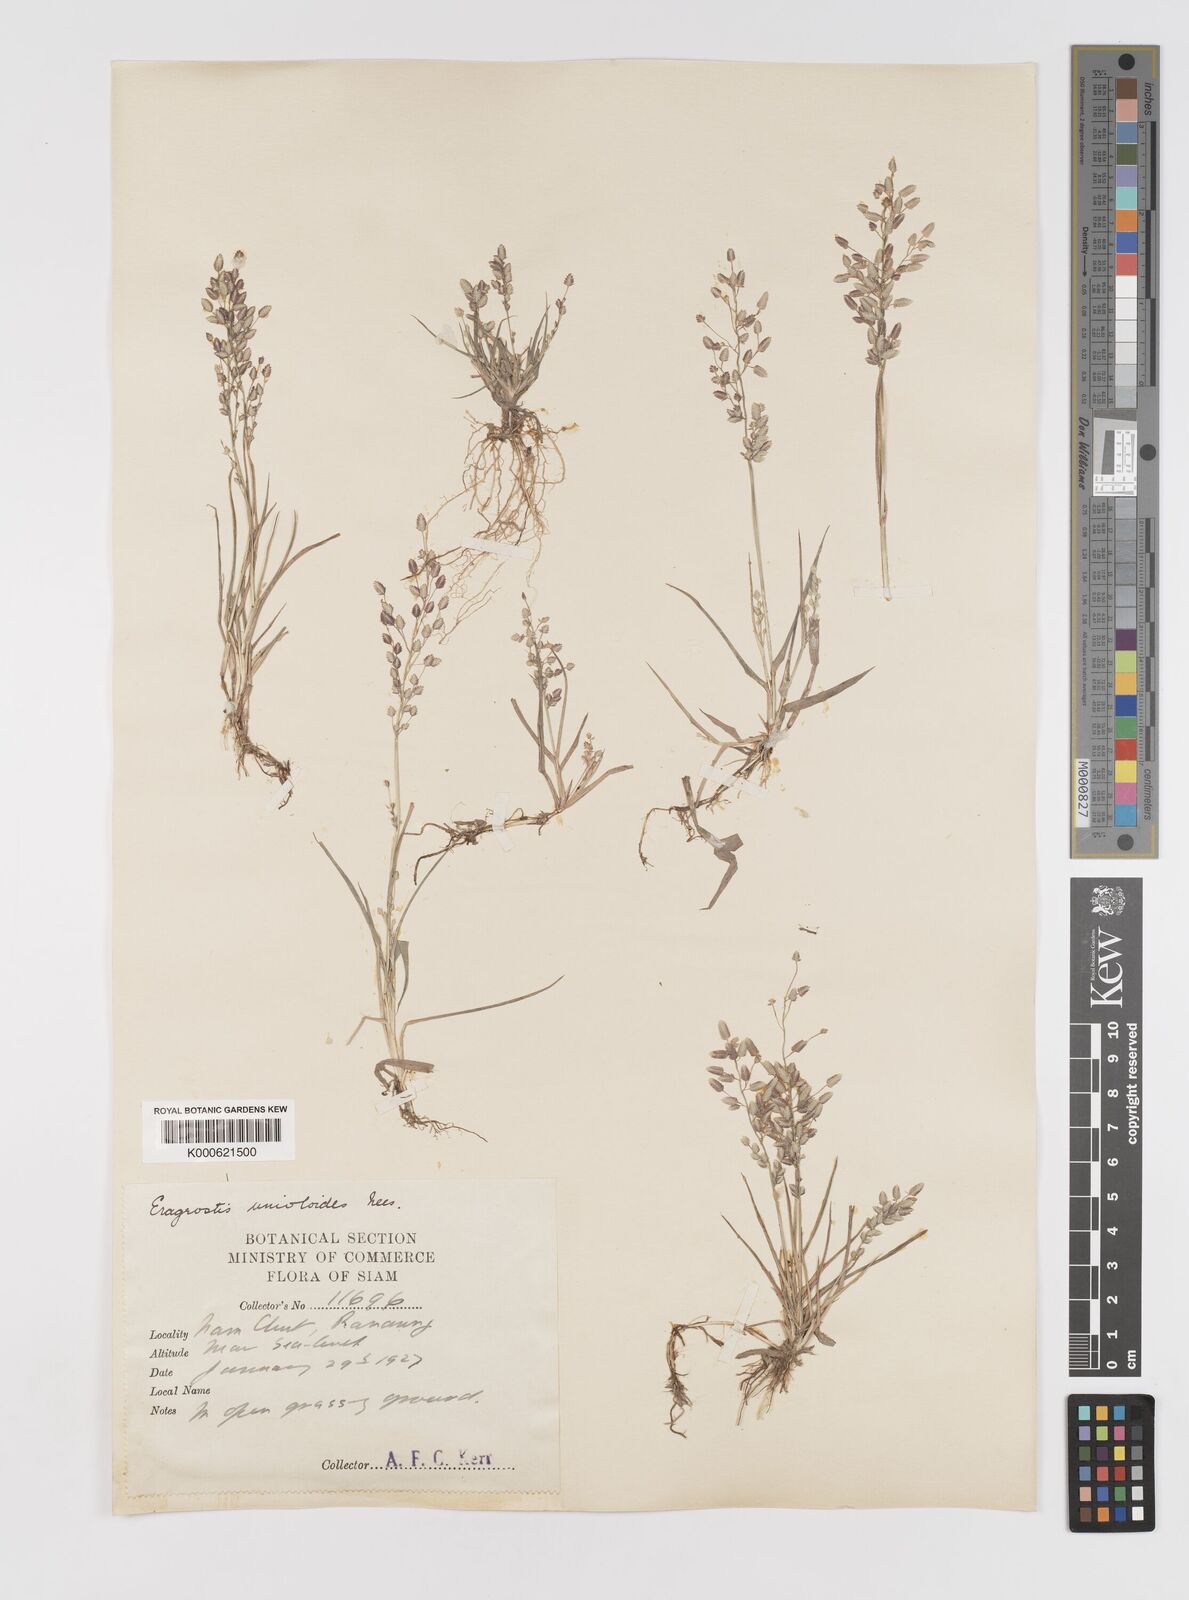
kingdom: Plantae
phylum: Tracheophyta
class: Liliopsida
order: Poales
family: Poaceae
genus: Eragrostis
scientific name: Eragrostis unioloides
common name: Chinese lovegrass
